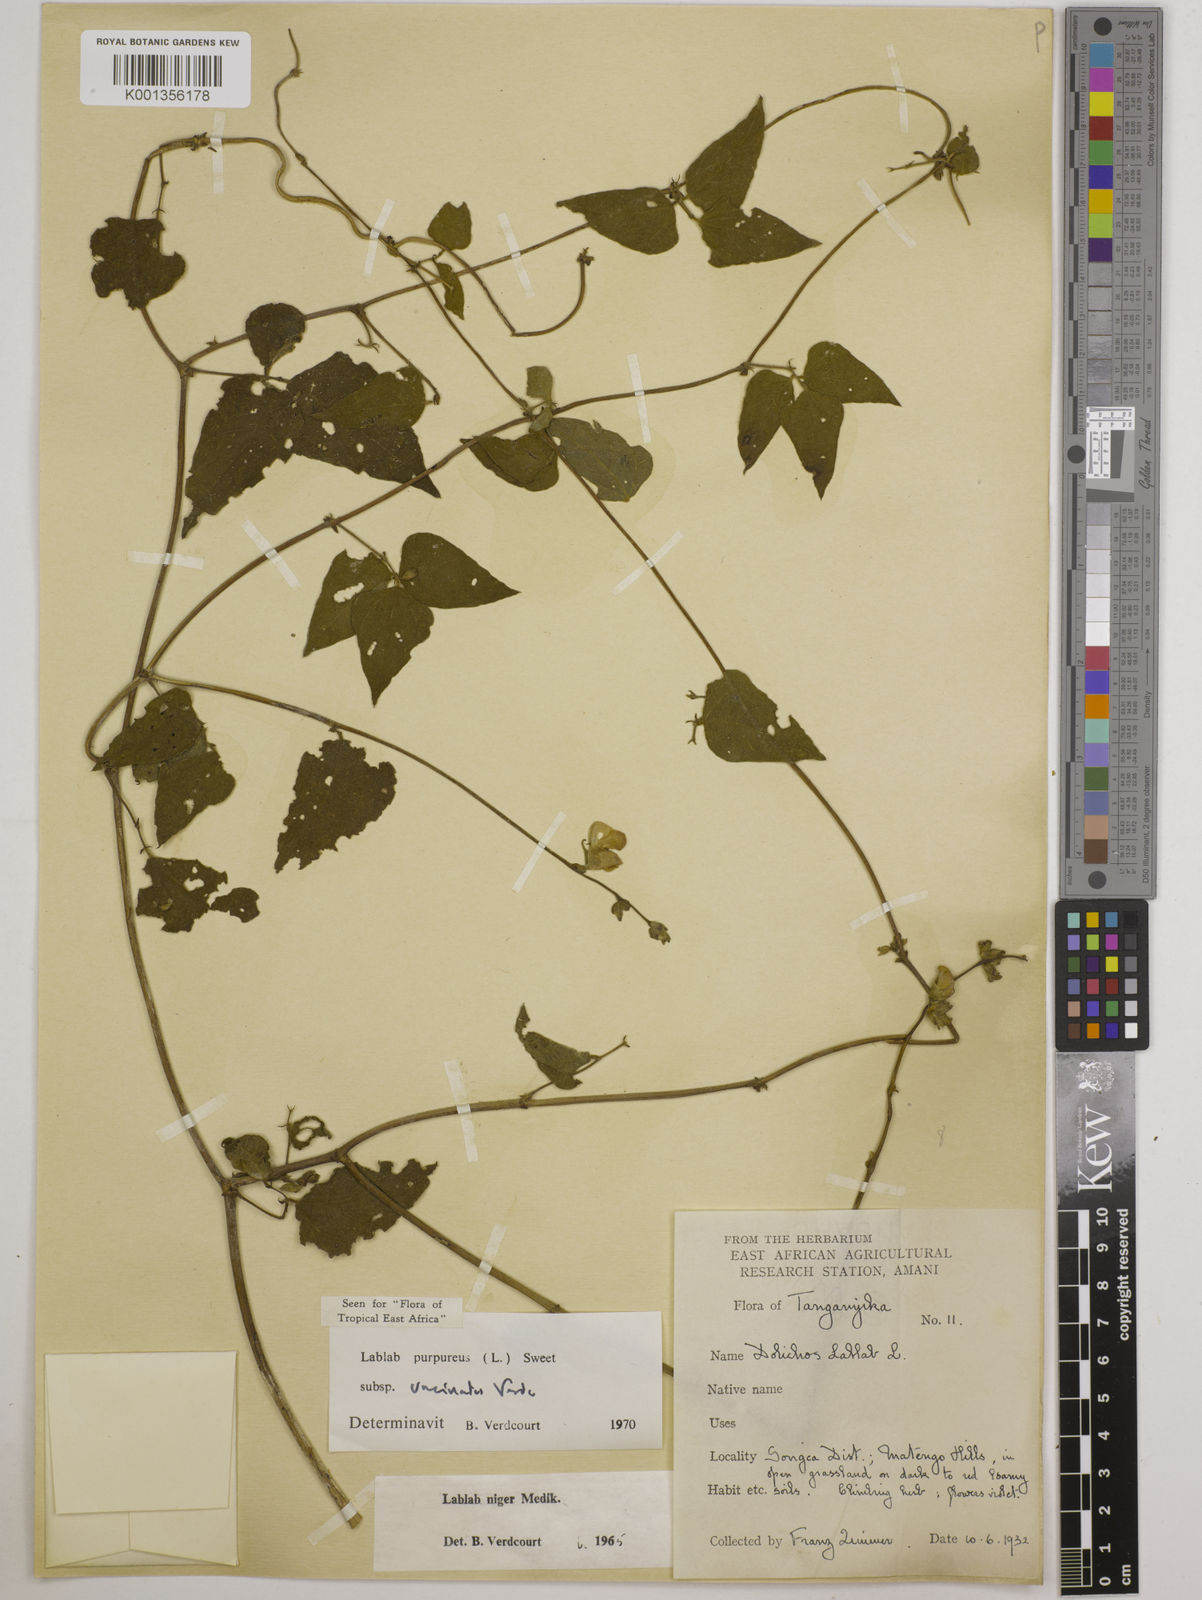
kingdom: Plantae
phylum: Tracheophyta
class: Magnoliopsida
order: Fabales
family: Fabaceae
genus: Lablab
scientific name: Lablab purpureus
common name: Lablab-bean
